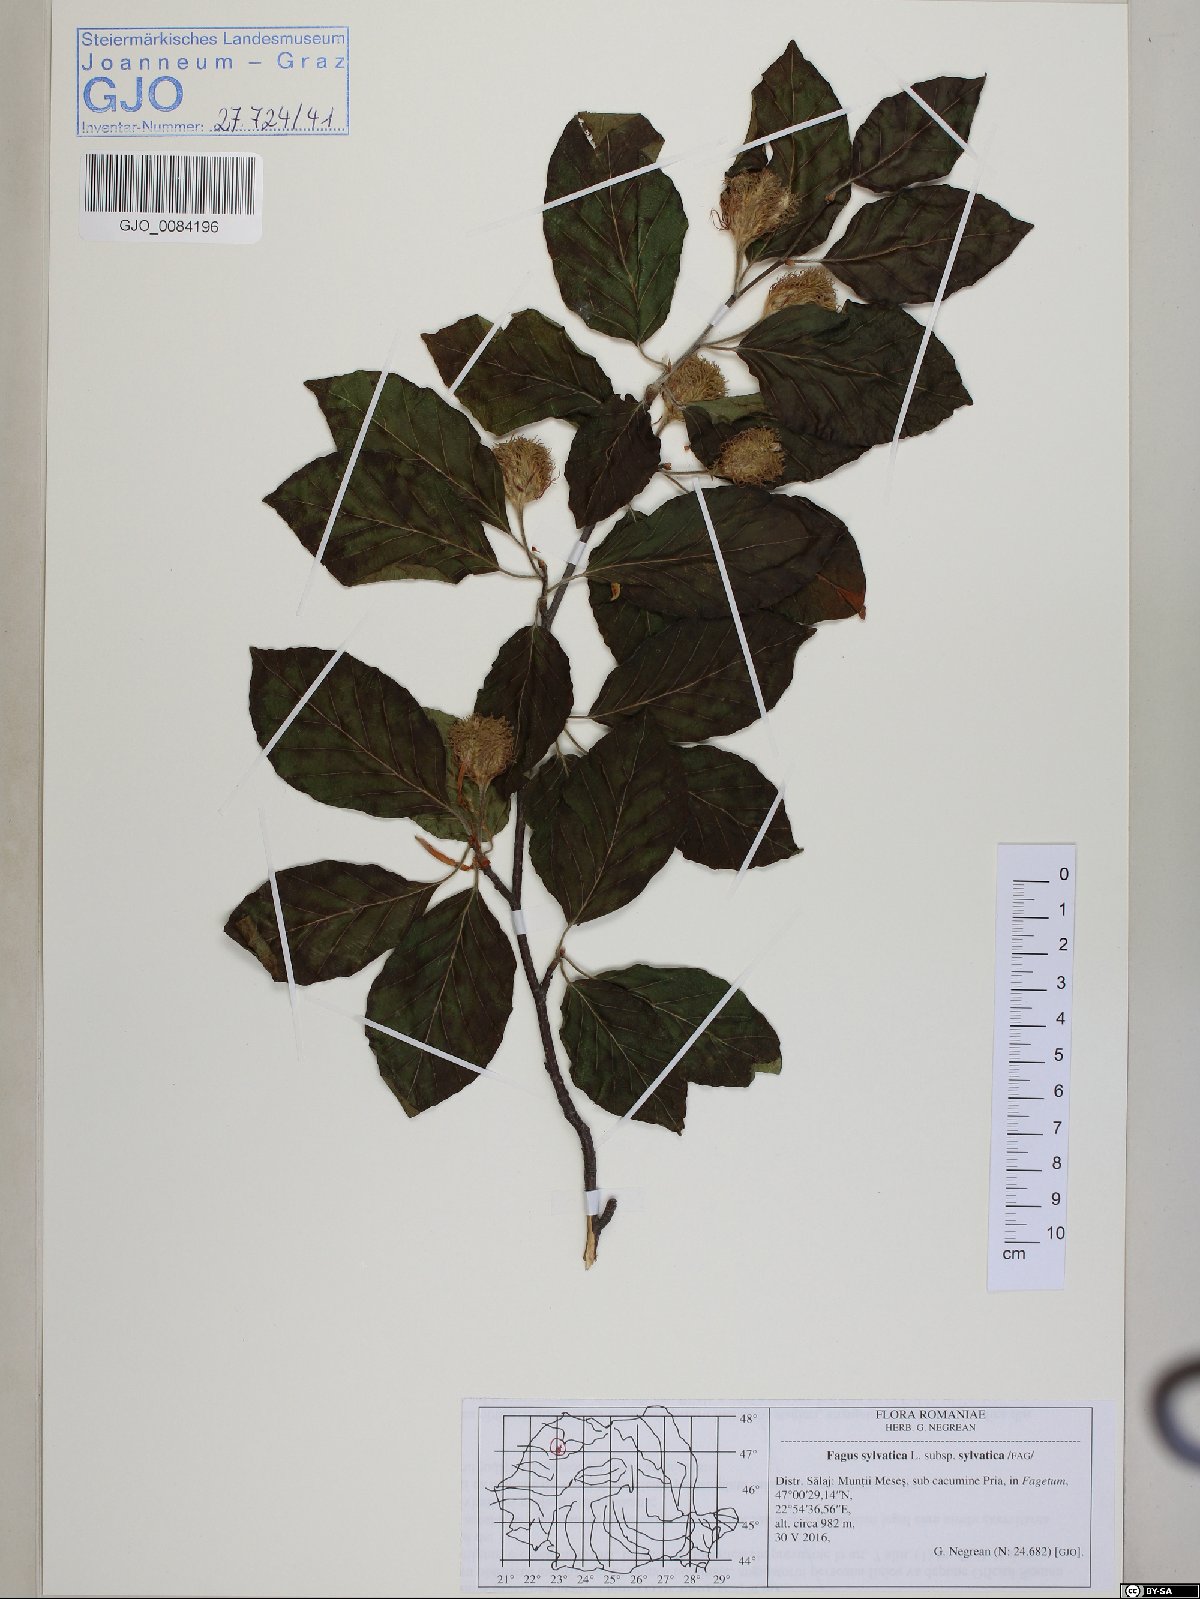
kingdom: Plantae
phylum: Tracheophyta
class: Magnoliopsida
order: Fagales
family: Fagaceae
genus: Fagus
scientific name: Fagus sylvatica
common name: Beech
